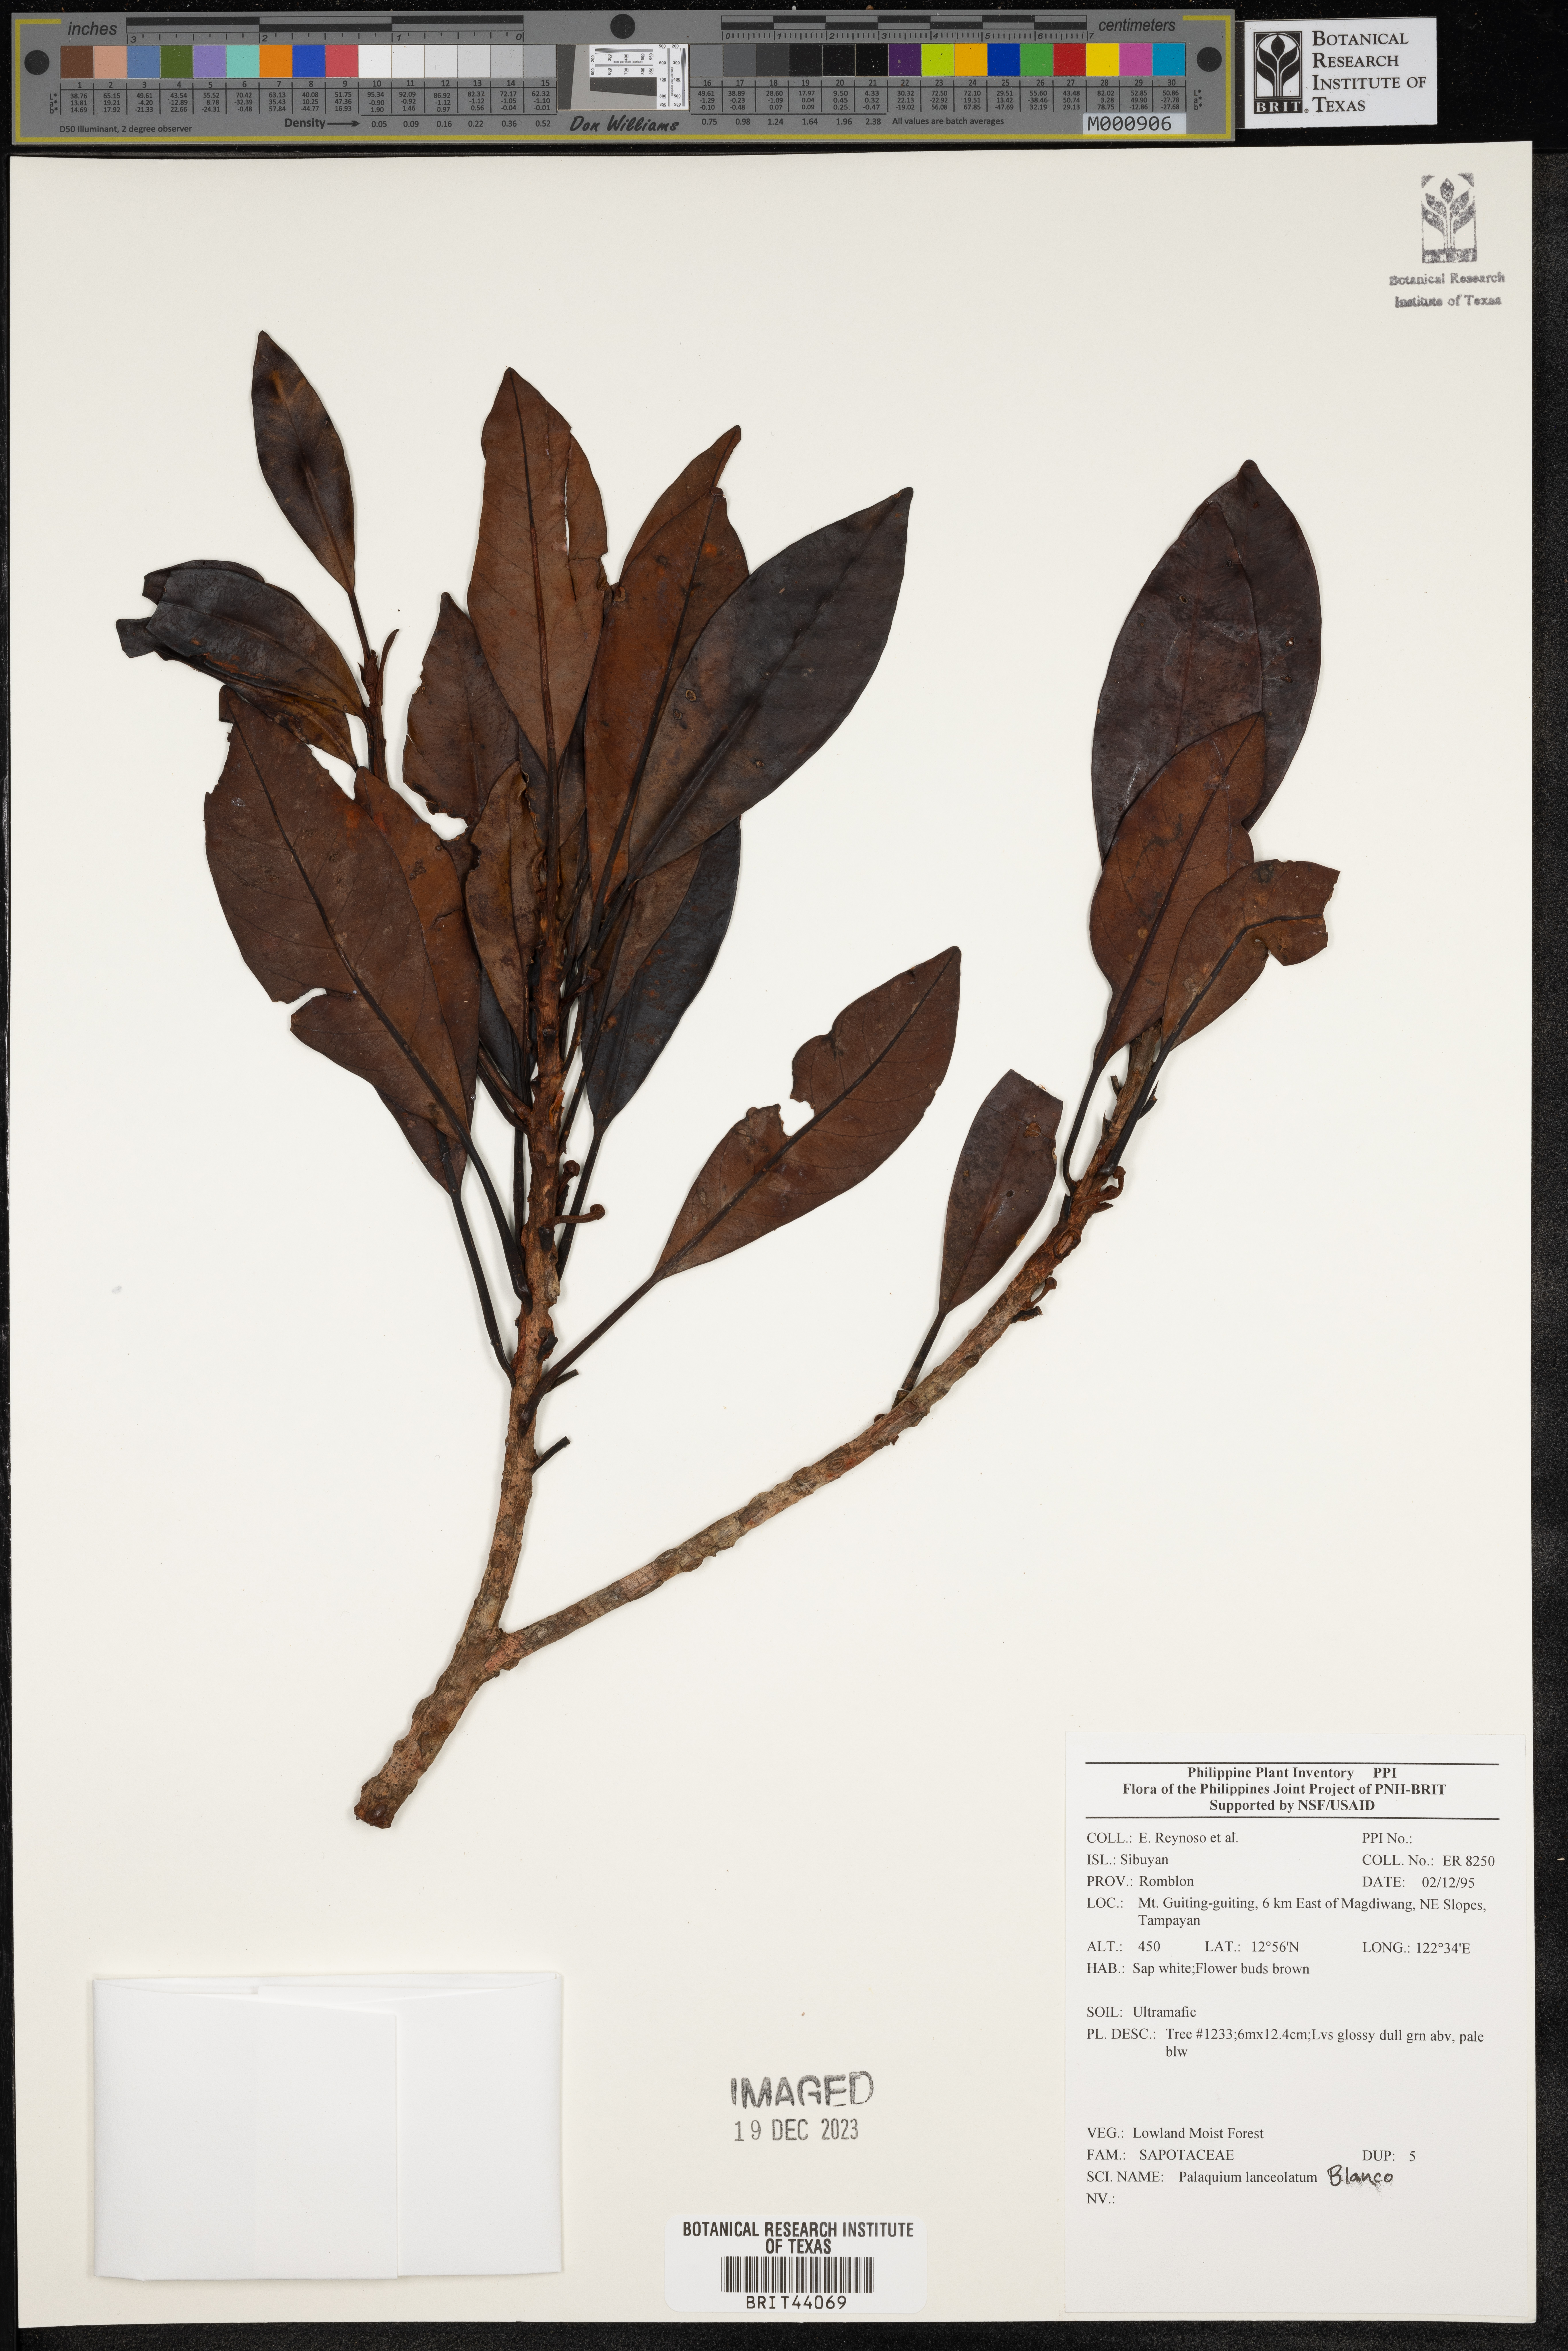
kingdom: Plantae
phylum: Tracheophyta
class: Magnoliopsida
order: Ericales
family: Sapotaceae
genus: Palaquium
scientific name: Palaquium lanceolatum
